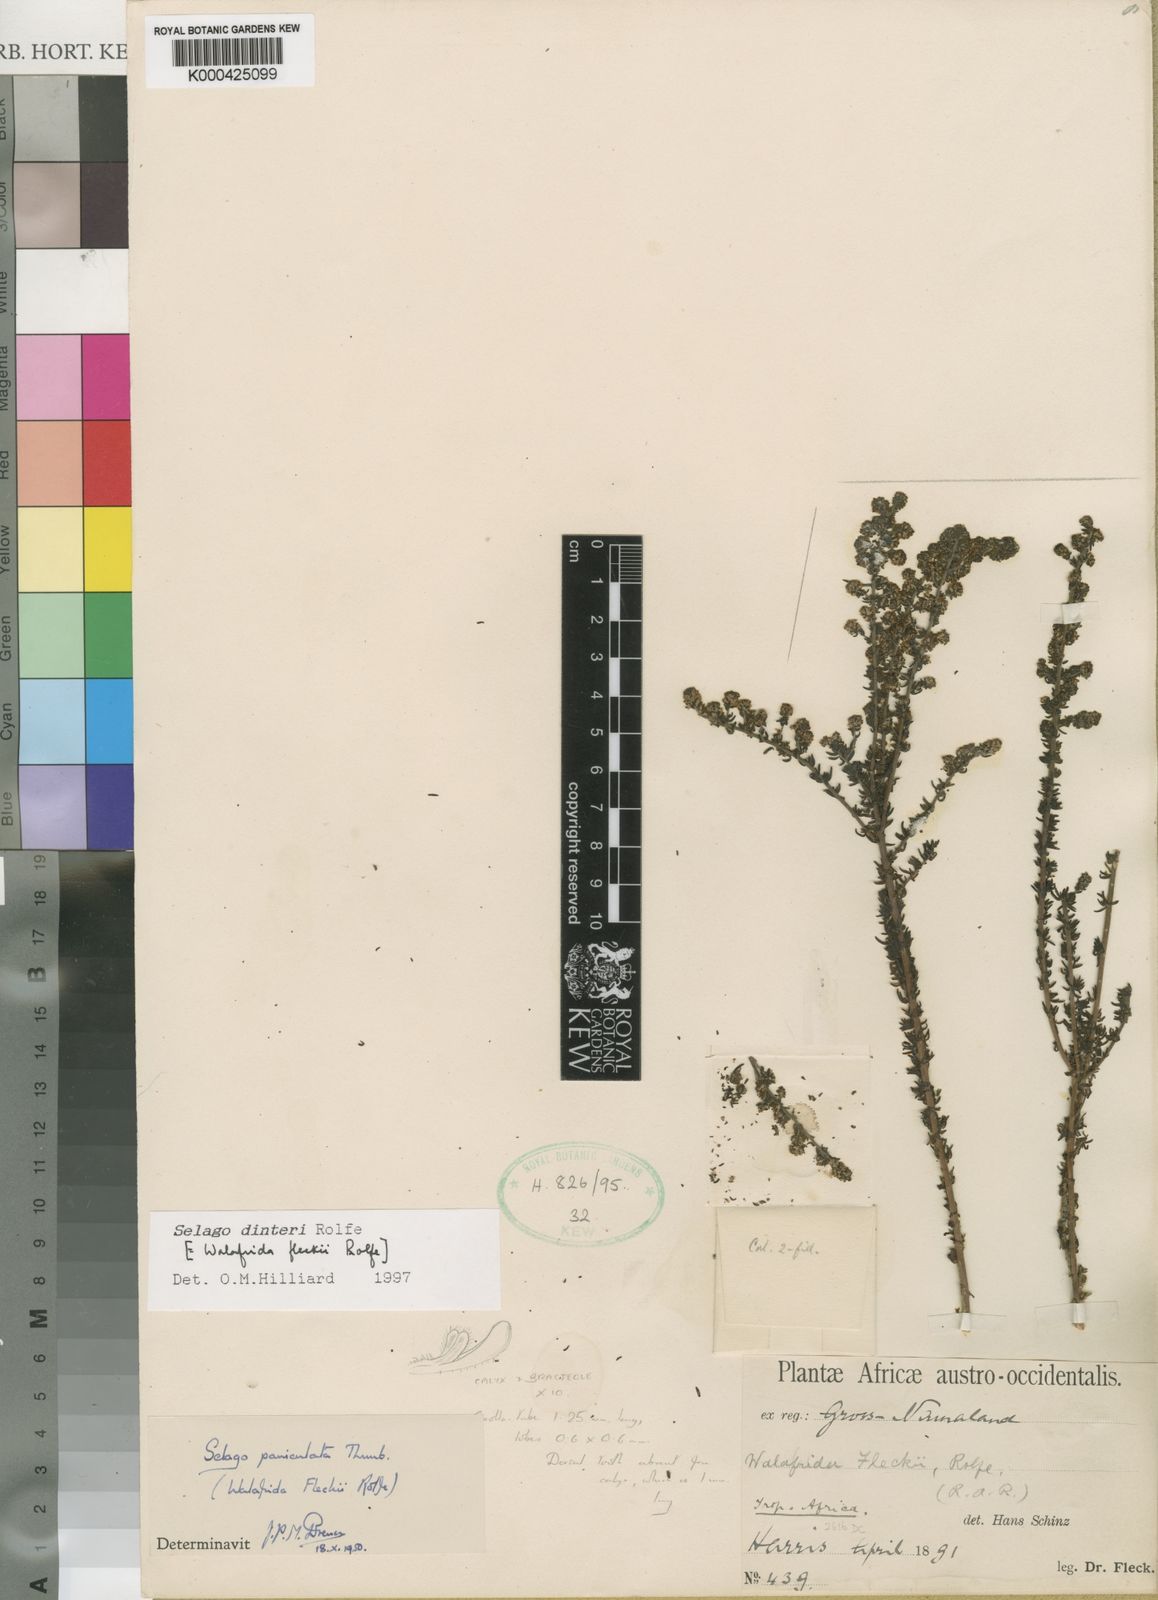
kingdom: Plantae
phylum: Tracheophyta
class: Magnoliopsida
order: Lamiales
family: Scrophulariaceae
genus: Selago
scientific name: Selago dinteri
